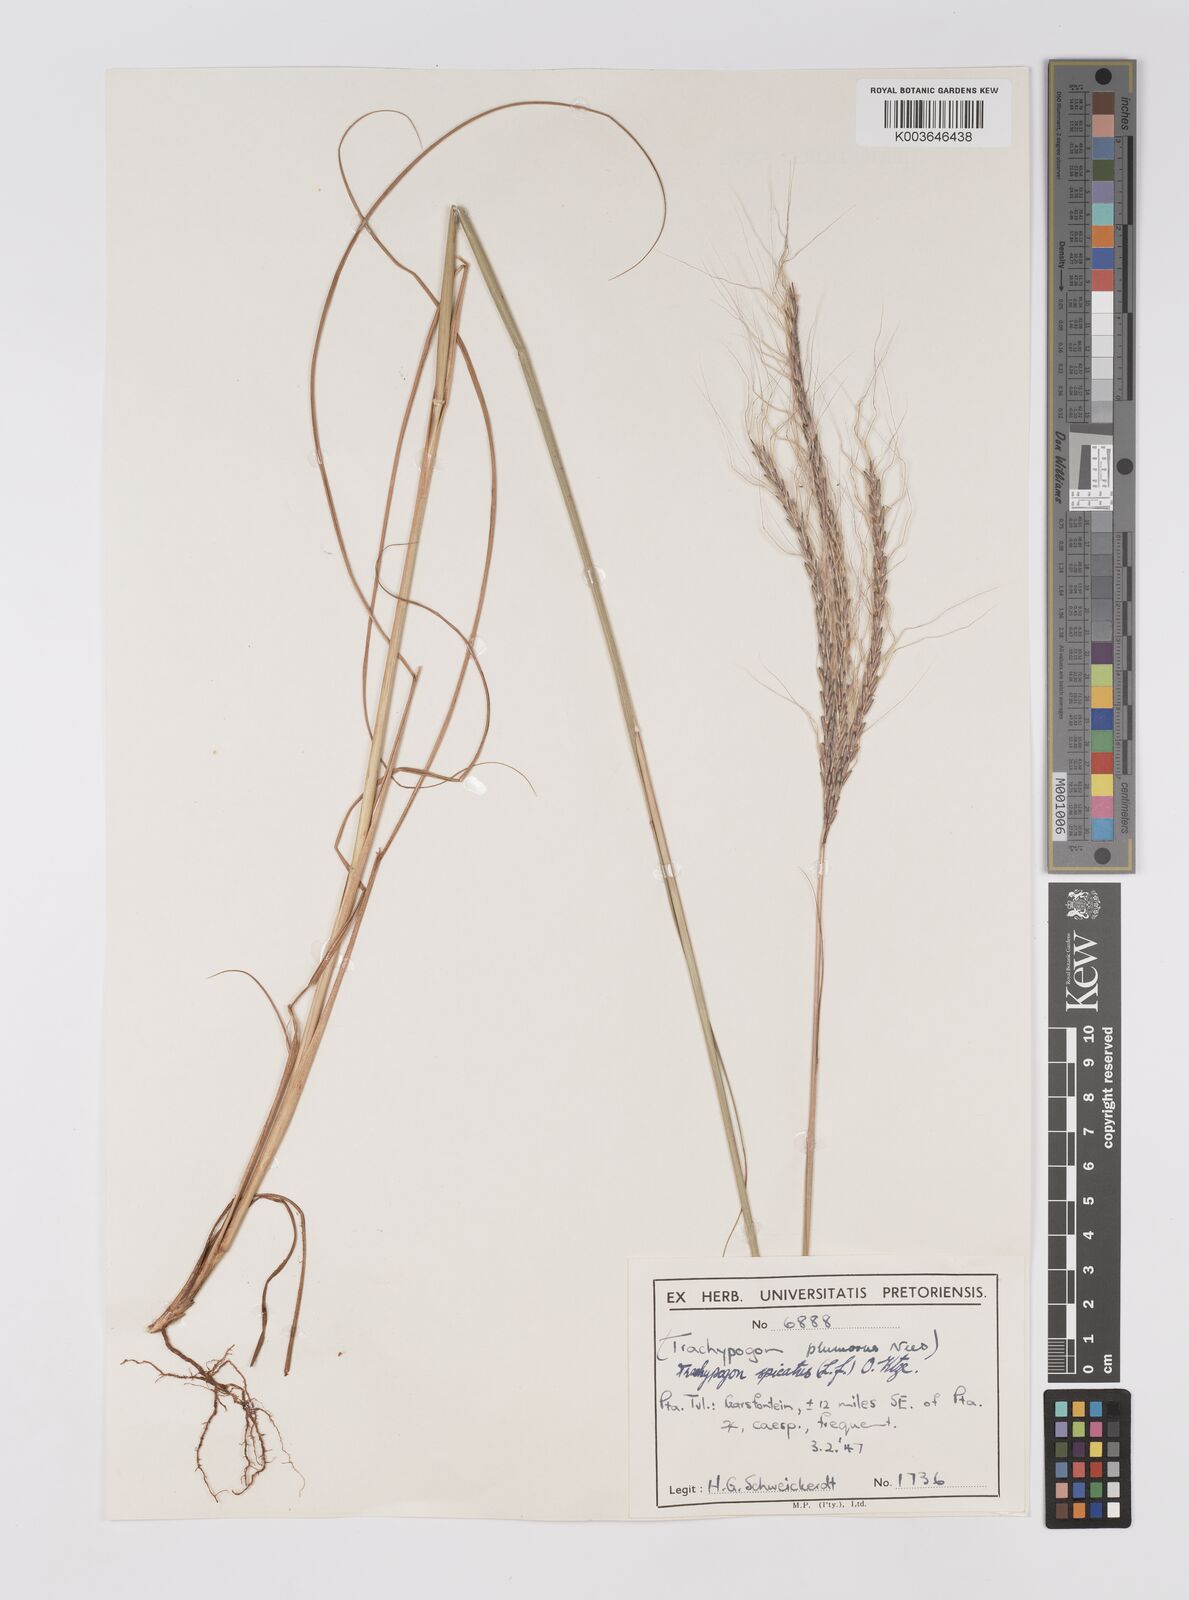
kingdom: Plantae
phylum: Tracheophyta
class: Liliopsida
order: Poales
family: Poaceae
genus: Trachypogon
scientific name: Trachypogon spicatus
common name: Crinkle-awn
